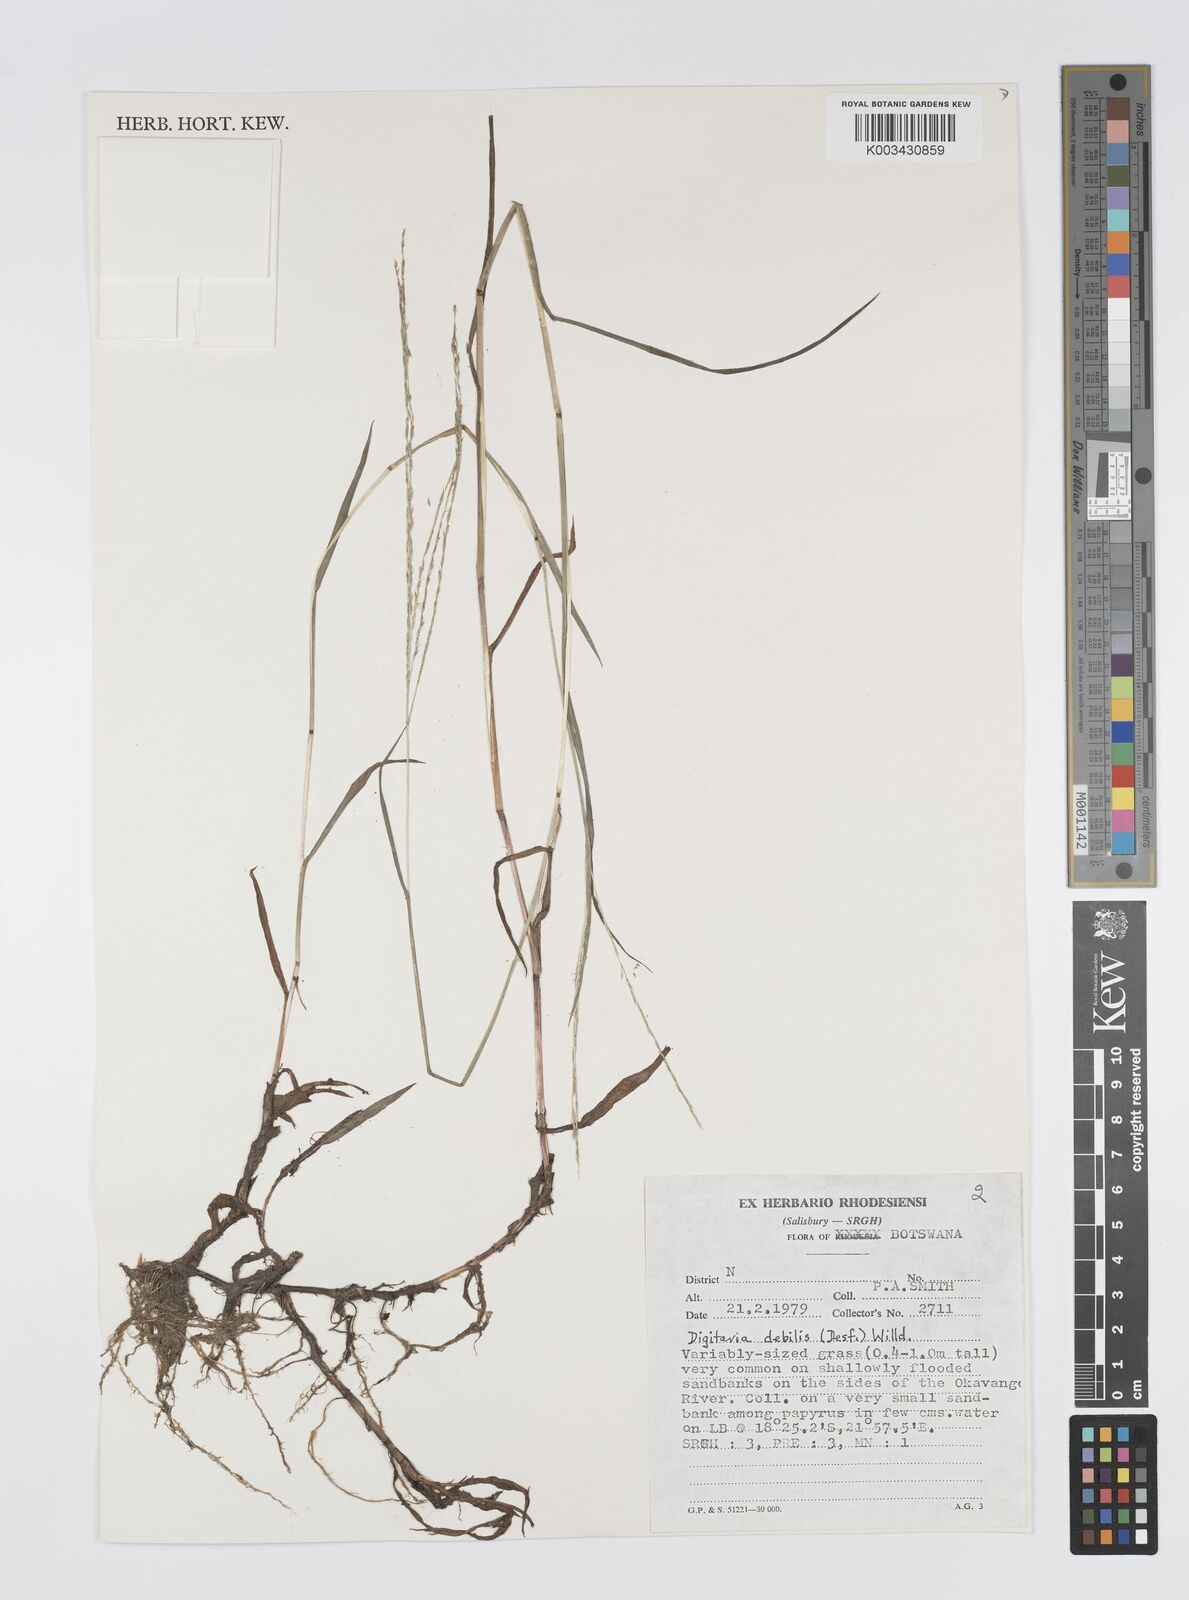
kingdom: Plantae
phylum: Tracheophyta
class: Liliopsida
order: Poales
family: Poaceae
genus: Digitaria
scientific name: Digitaria debilis
